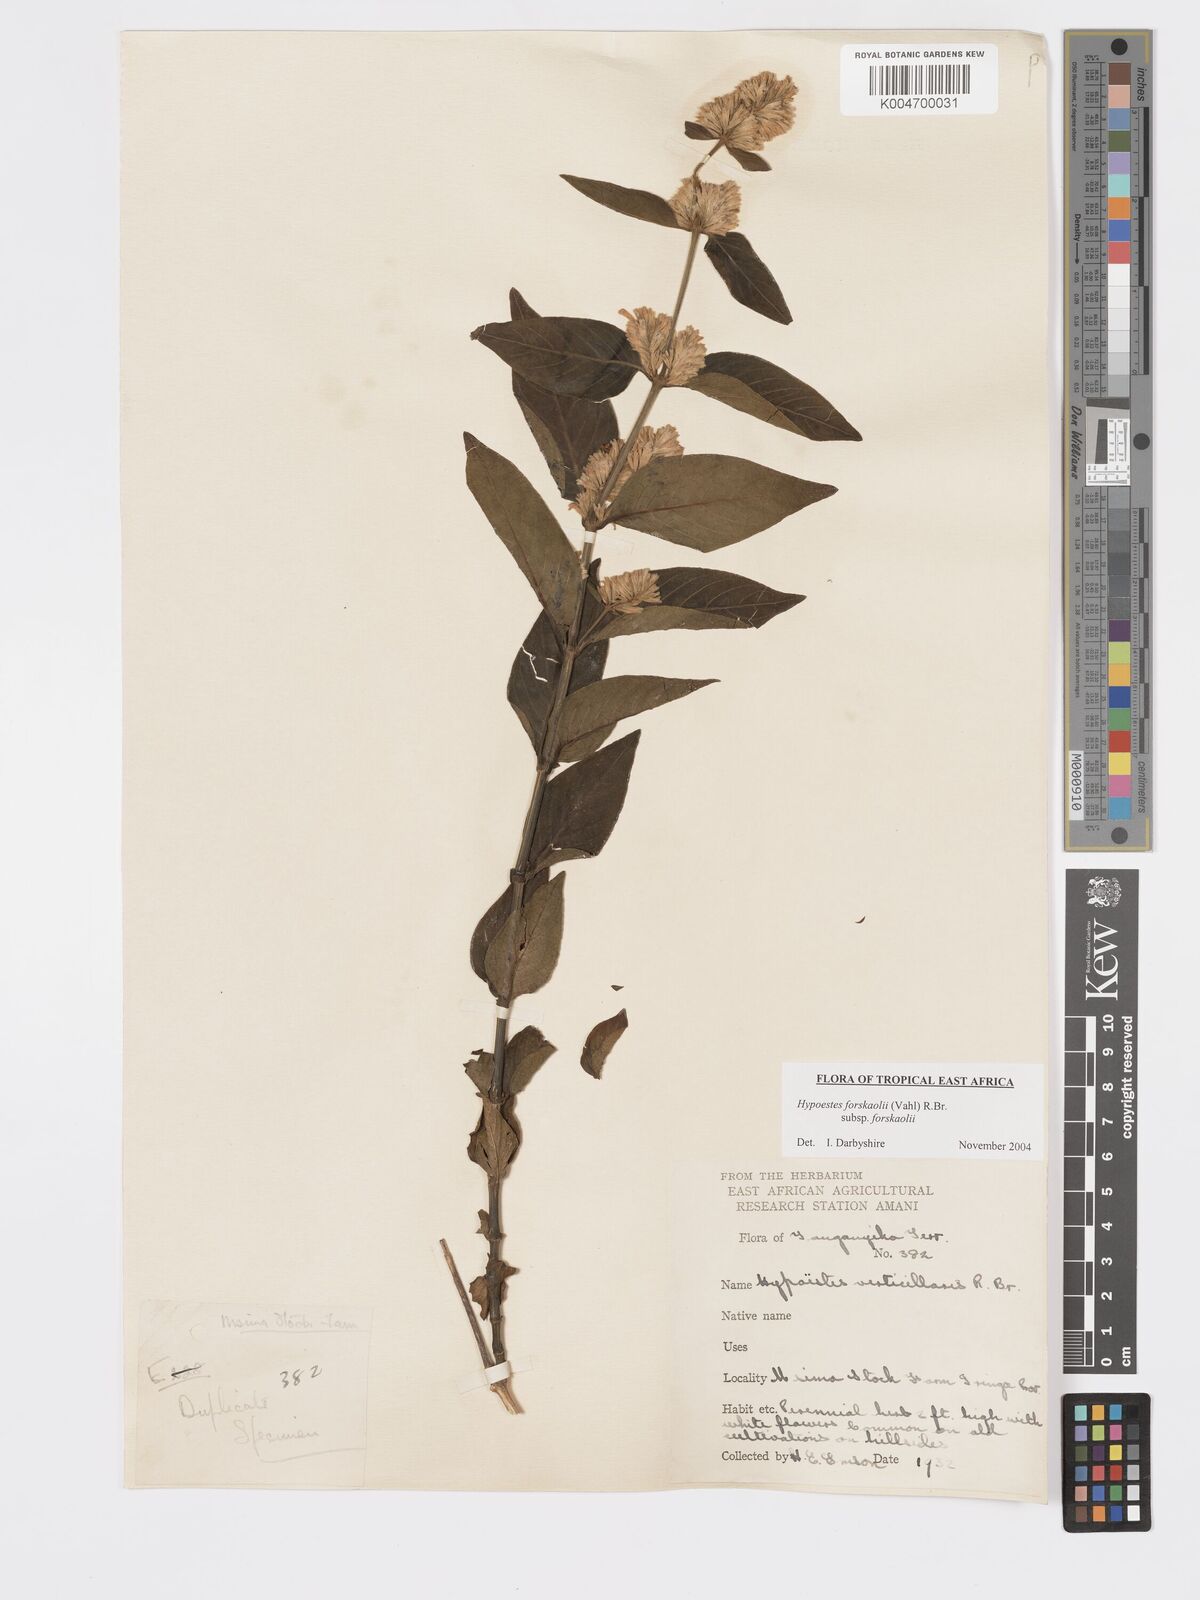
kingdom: Plantae
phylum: Tracheophyta
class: Magnoliopsida
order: Lamiales
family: Acanthaceae
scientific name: Acanthaceae
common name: Acanthaceae
